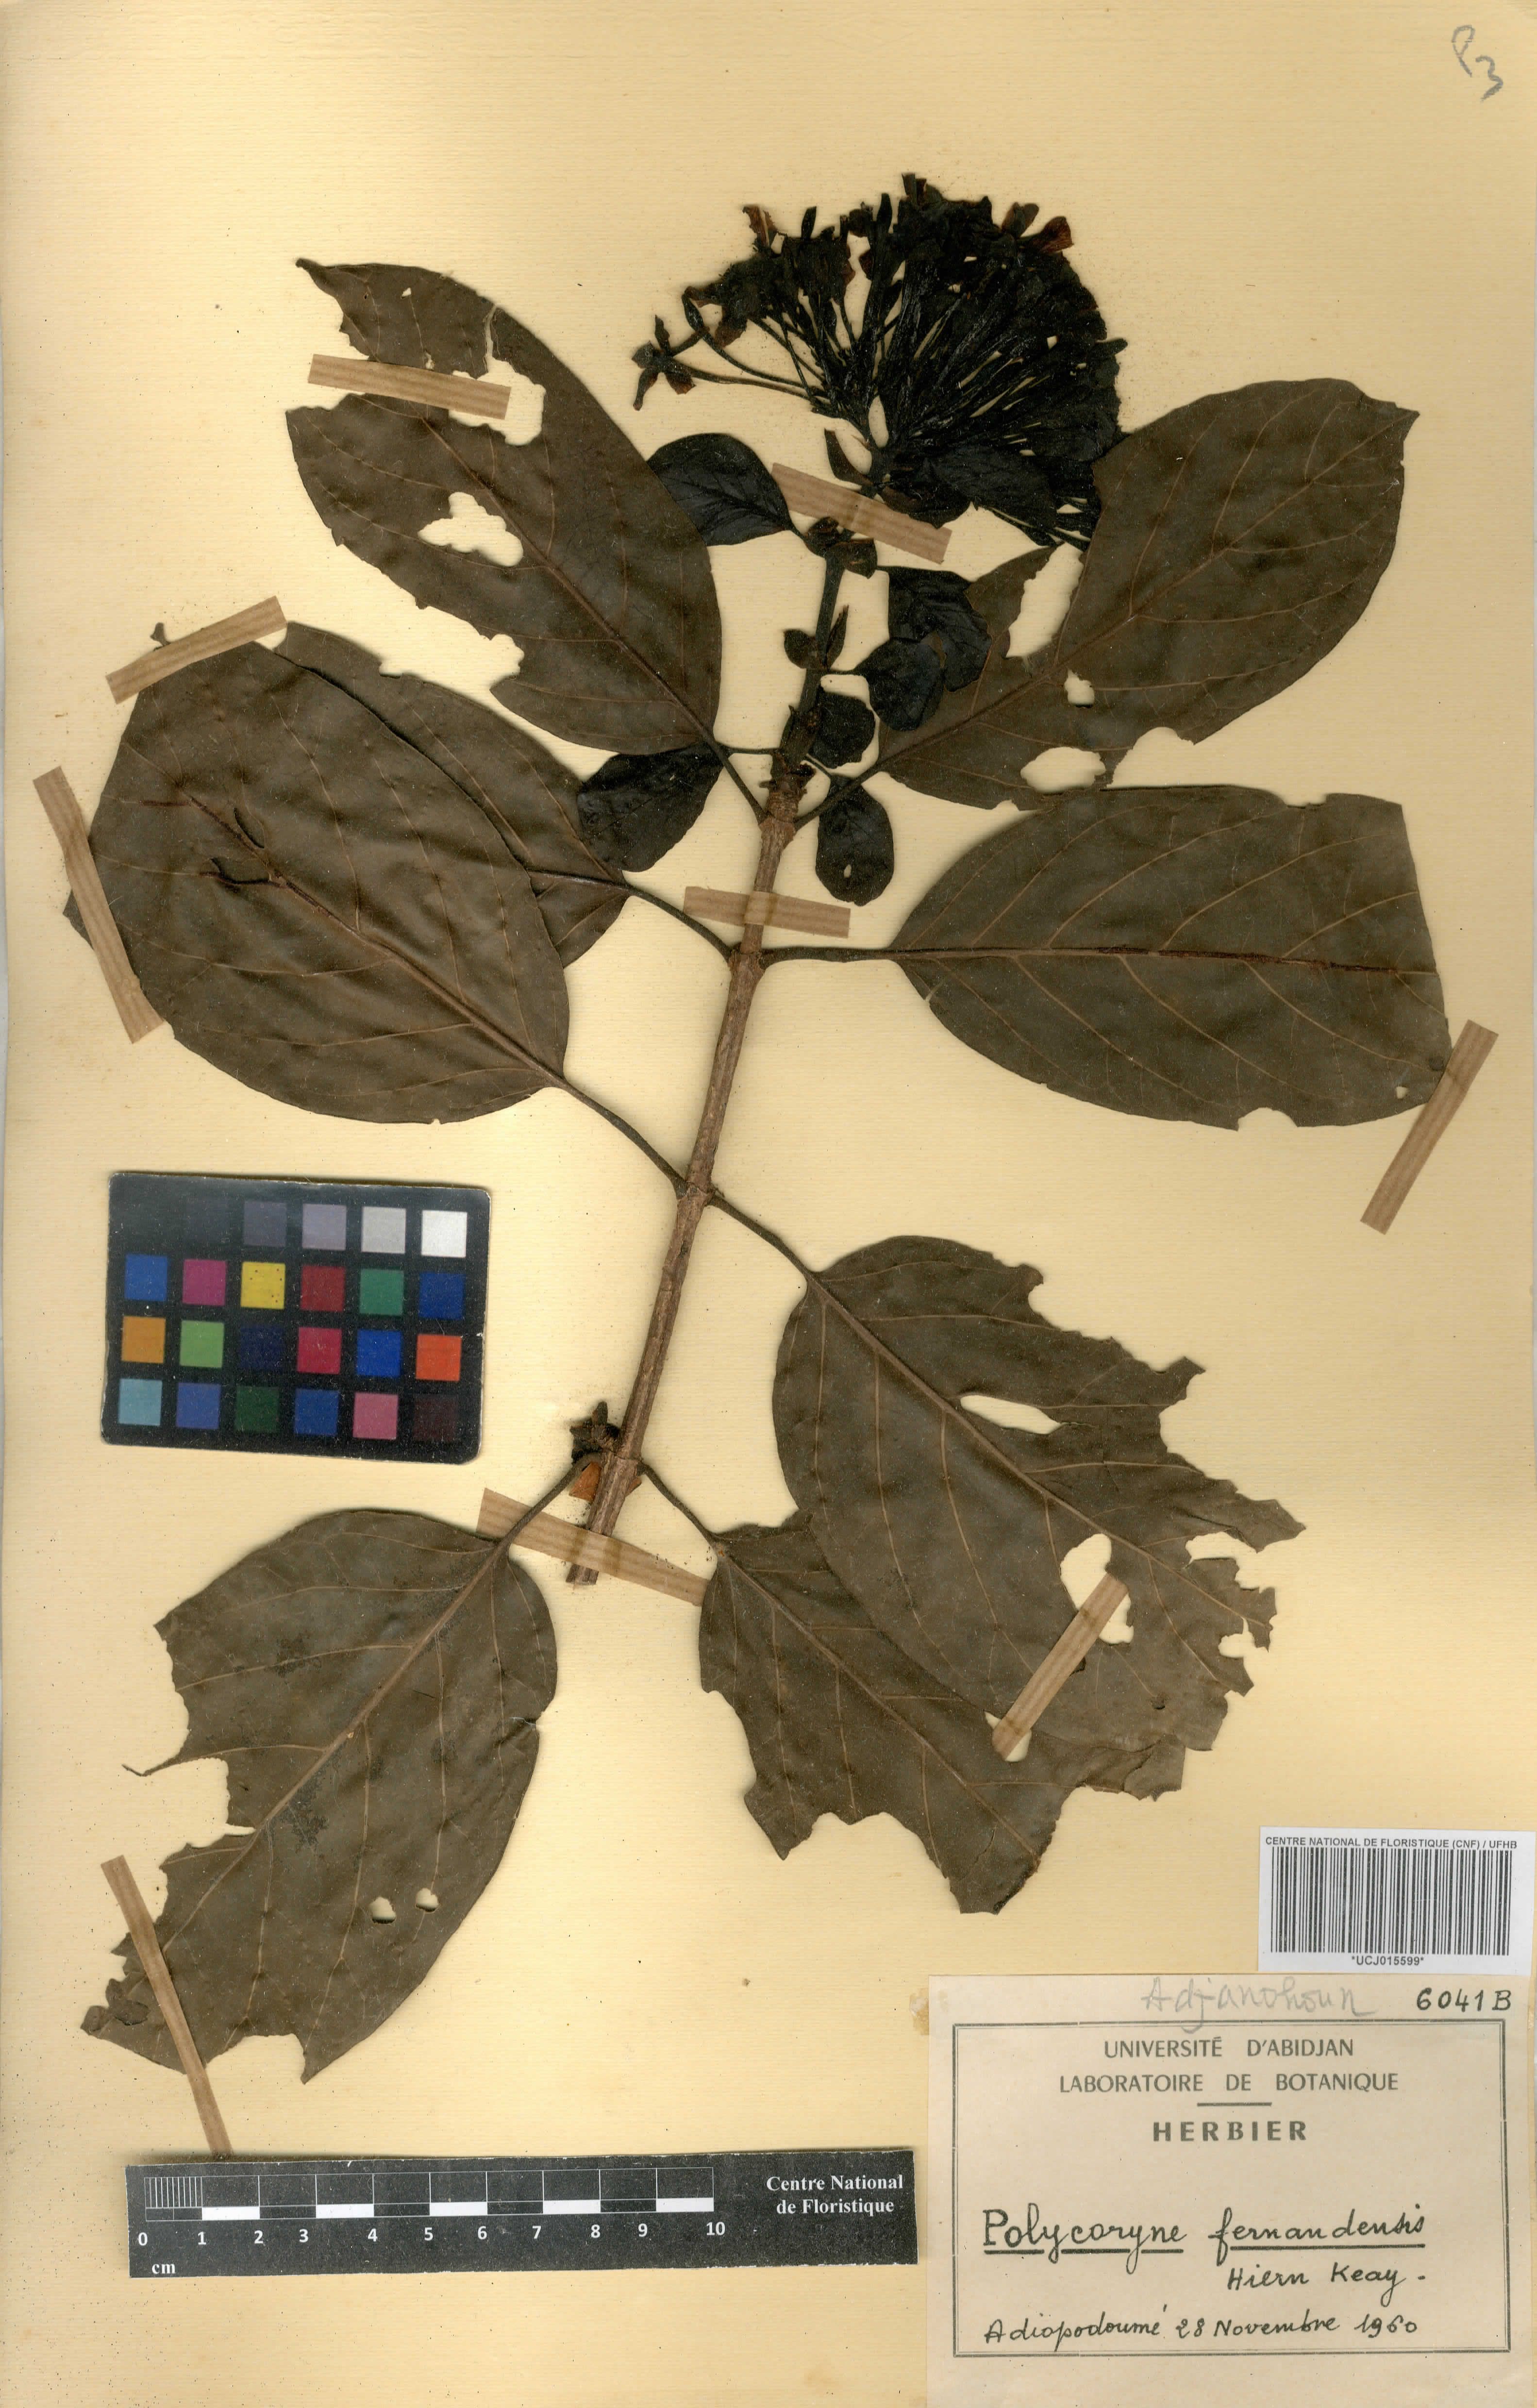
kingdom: Plantae
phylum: Tracheophyta
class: Magnoliopsida
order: Gentianales
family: Rubiaceae
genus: Pleiocoryne
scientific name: Pleiocoryne fernandensis
